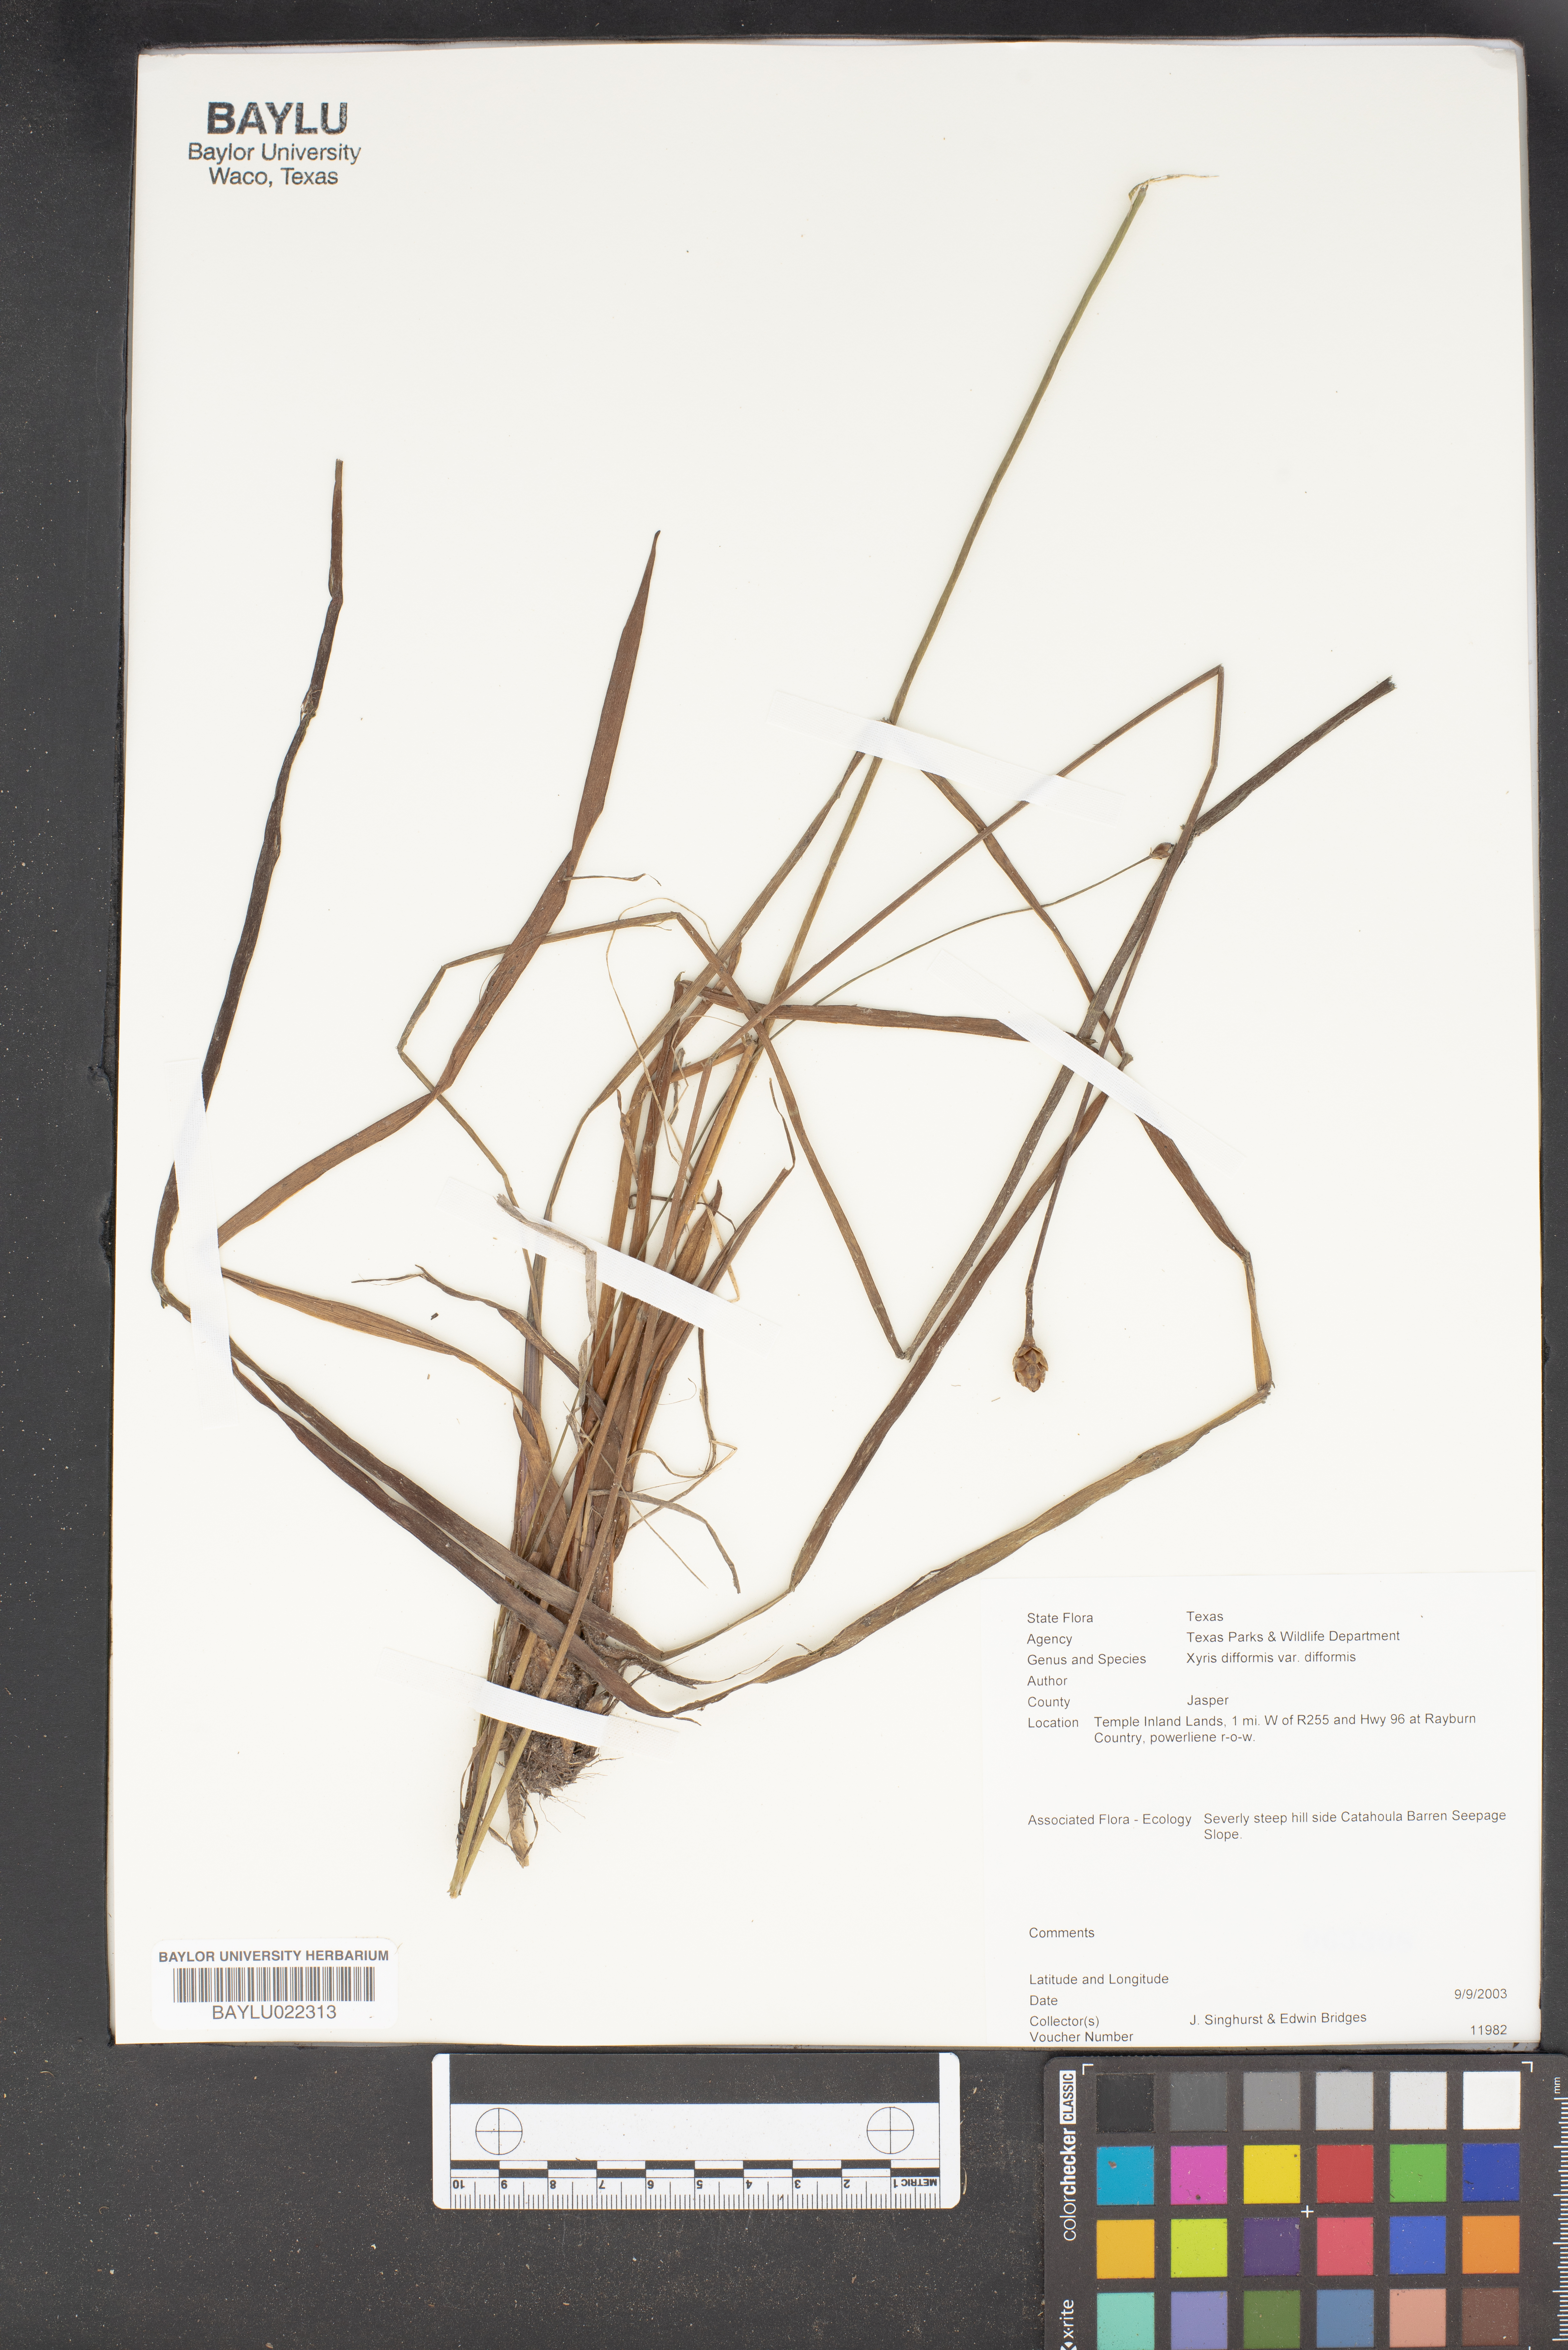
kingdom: Plantae
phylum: Tracheophyta
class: Liliopsida
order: Poales
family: Xyridaceae
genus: Xyris
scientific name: Xyris difformis
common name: Bog yellow-eyed-grass
